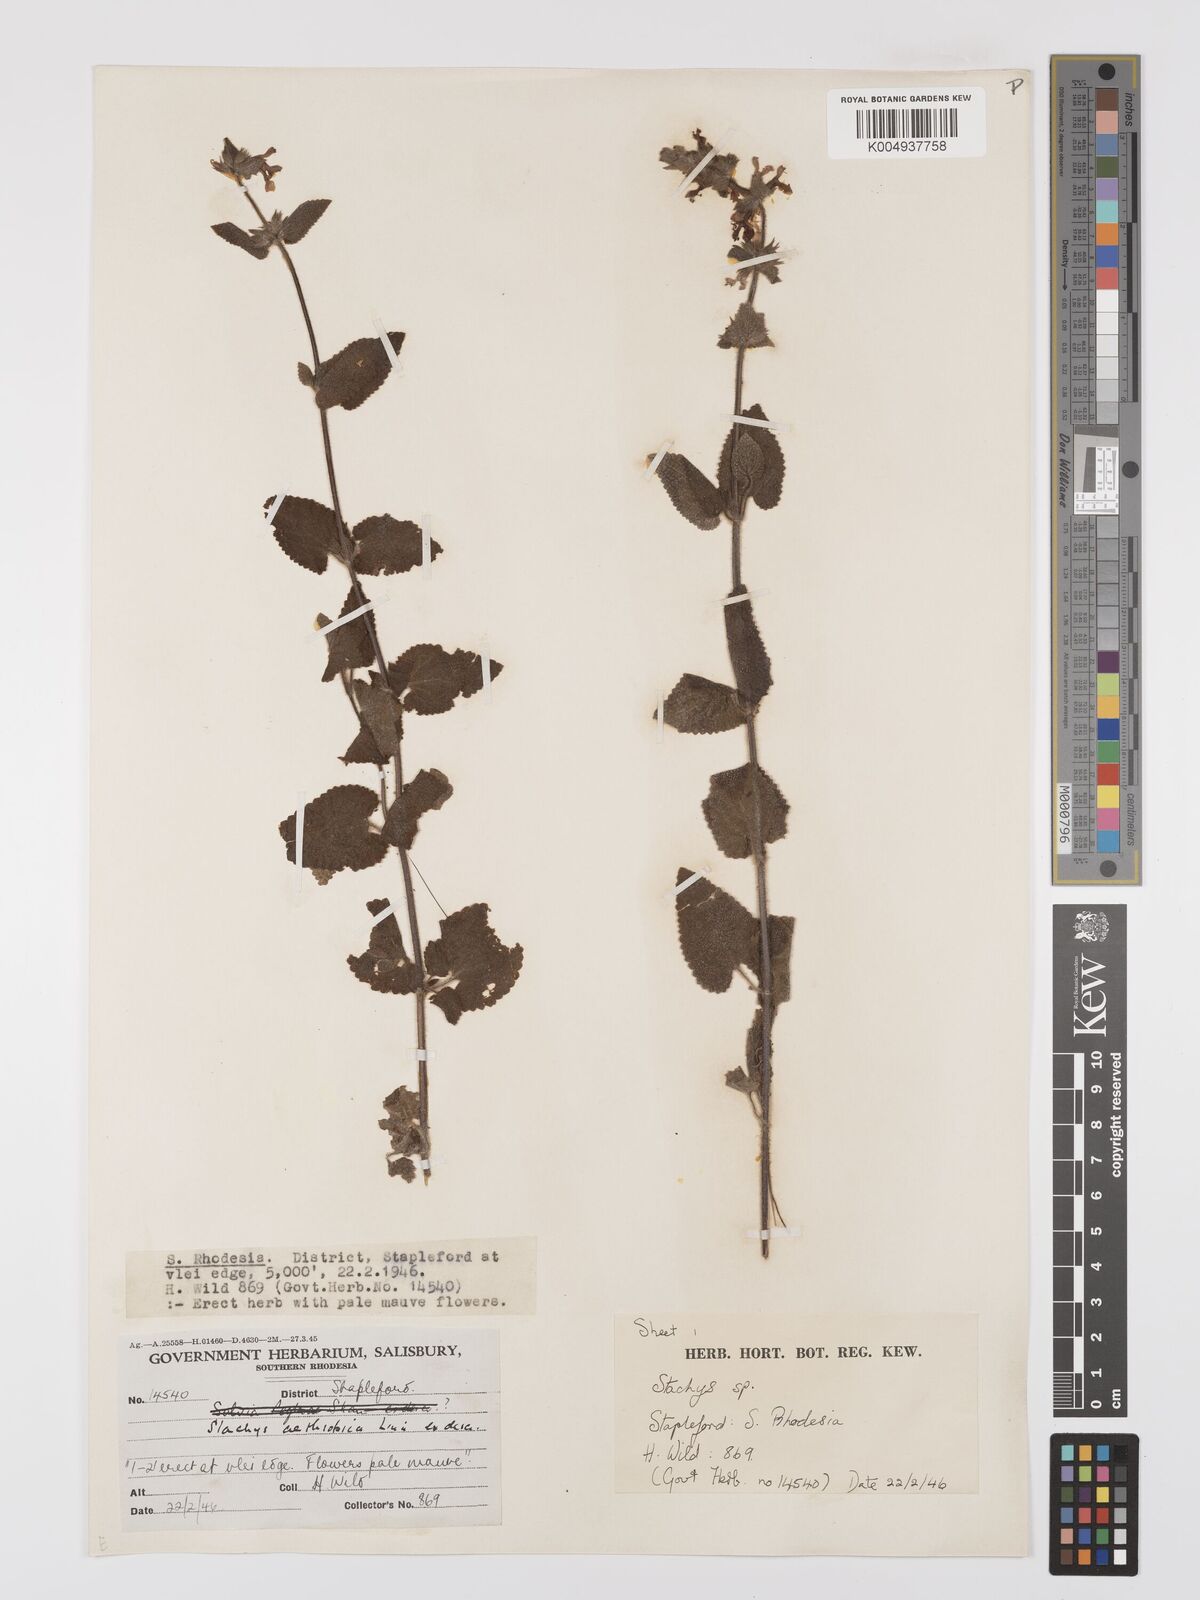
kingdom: Plantae
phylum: Tracheophyta
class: Magnoliopsida
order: Lamiales
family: Lamiaceae
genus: Stachys
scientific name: Stachys aethiopica
